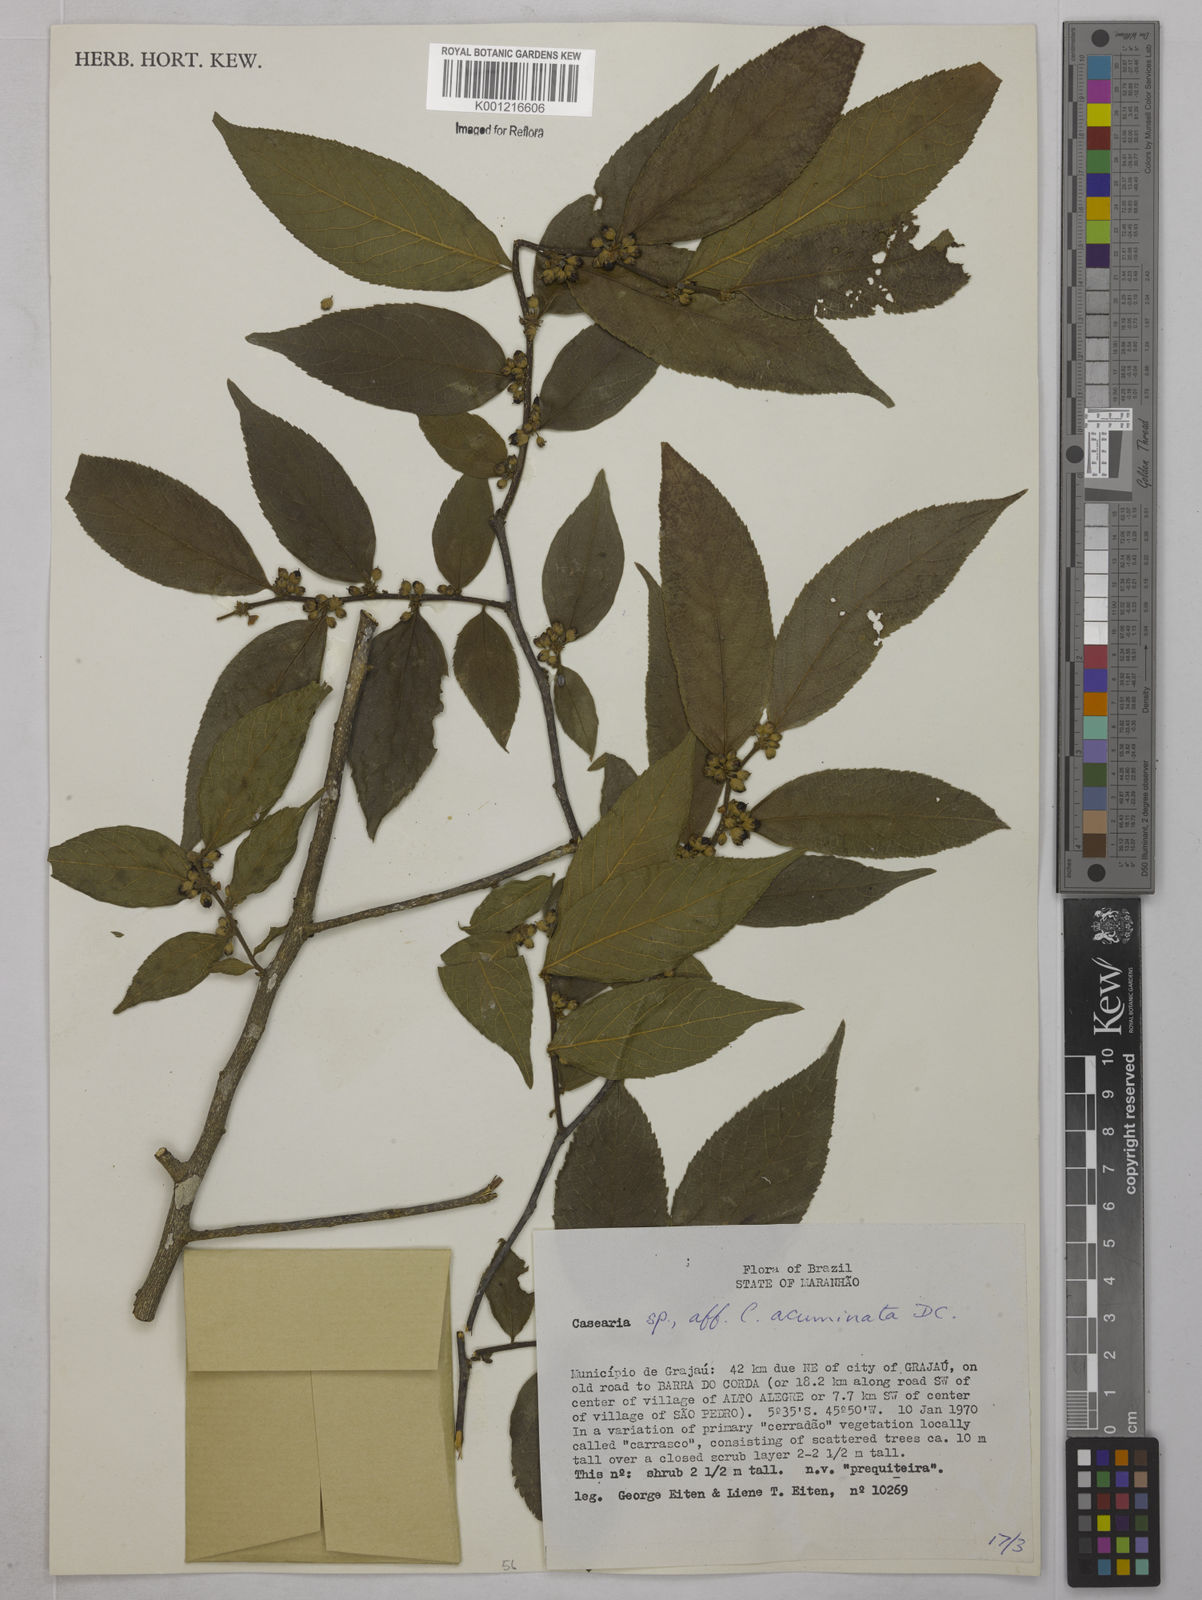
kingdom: Plantae
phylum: Tracheophyta
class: Magnoliopsida
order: Malpighiales
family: Salicaceae
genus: Casearia
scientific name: Casearia acuminata
